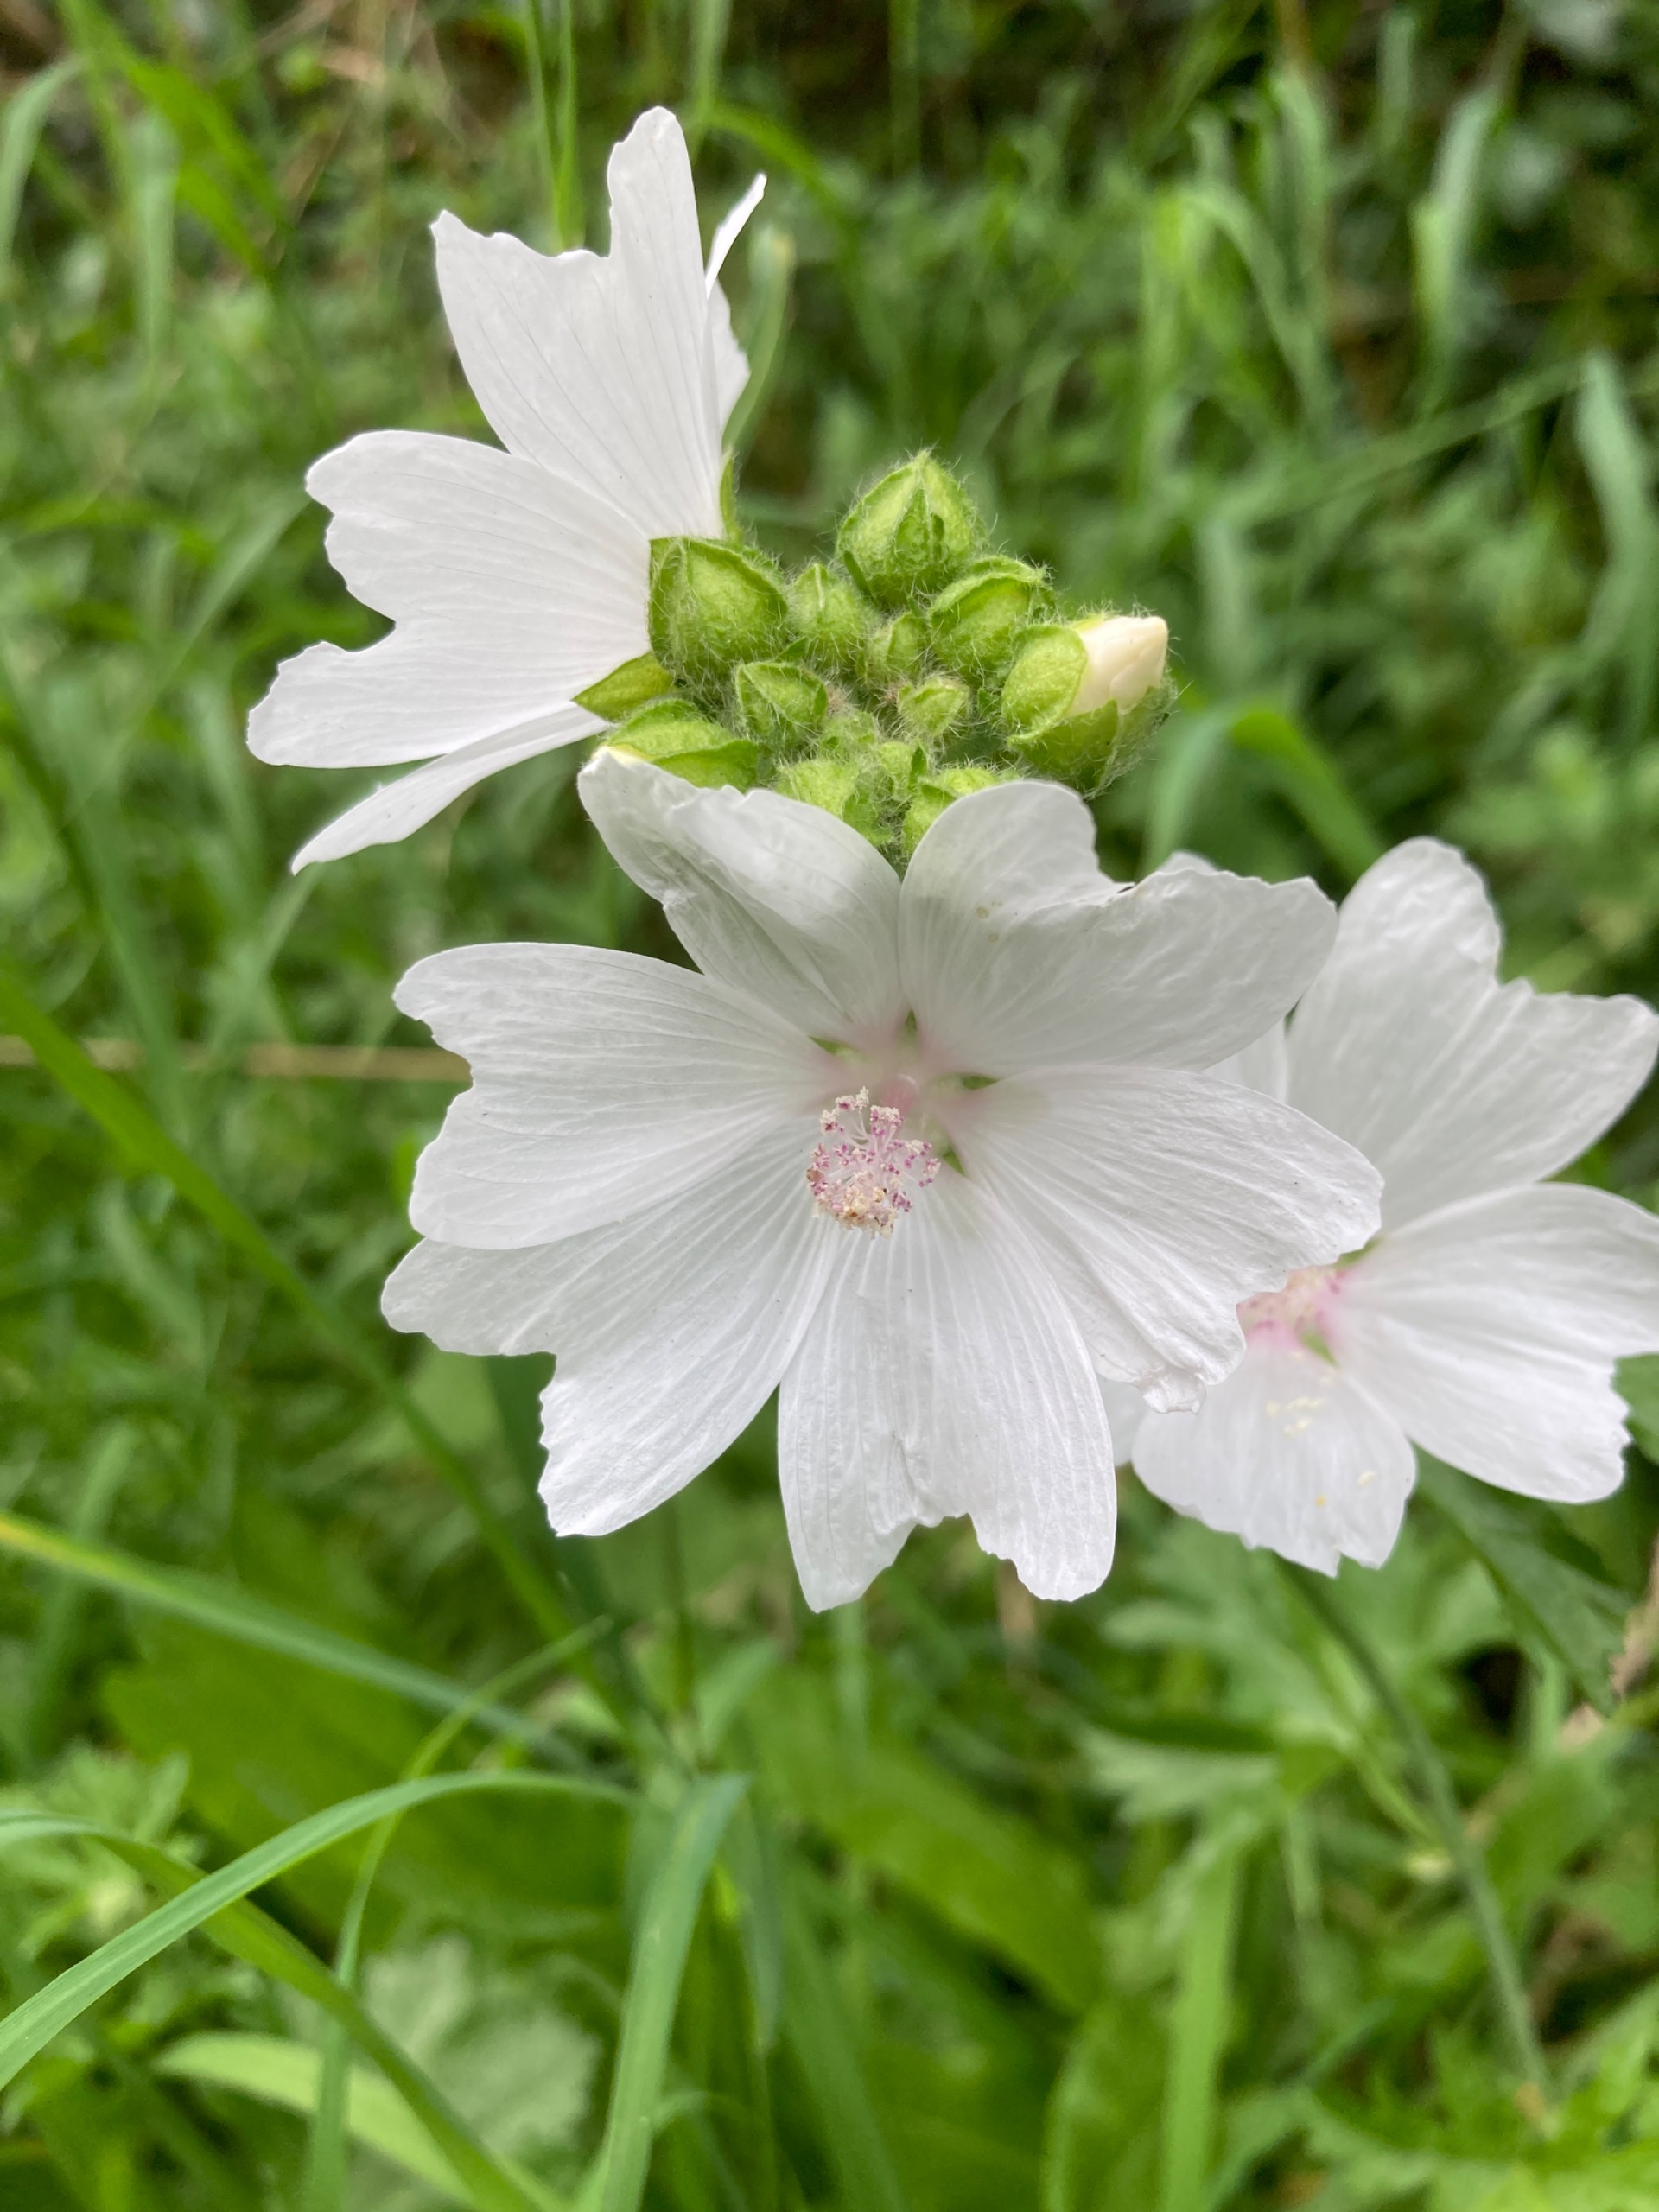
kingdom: Plantae
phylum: Tracheophyta
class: Magnoliopsida
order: Malvales
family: Malvaceae
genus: Malva
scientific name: Malva moschata
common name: Moskus-katost
